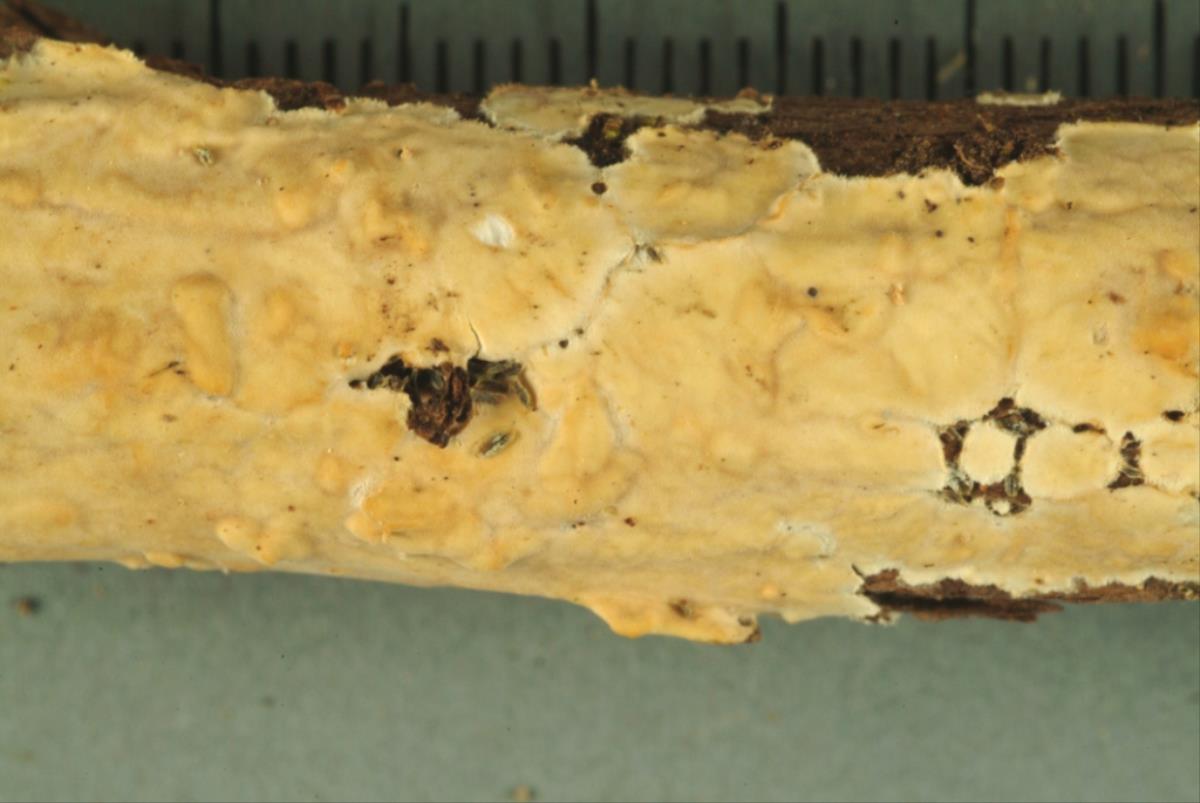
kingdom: Fungi
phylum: Basidiomycota
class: Agaricomycetes
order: Russulales
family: Stereaceae
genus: Stereodiscus
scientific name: Stereodiscus parmuliformis
